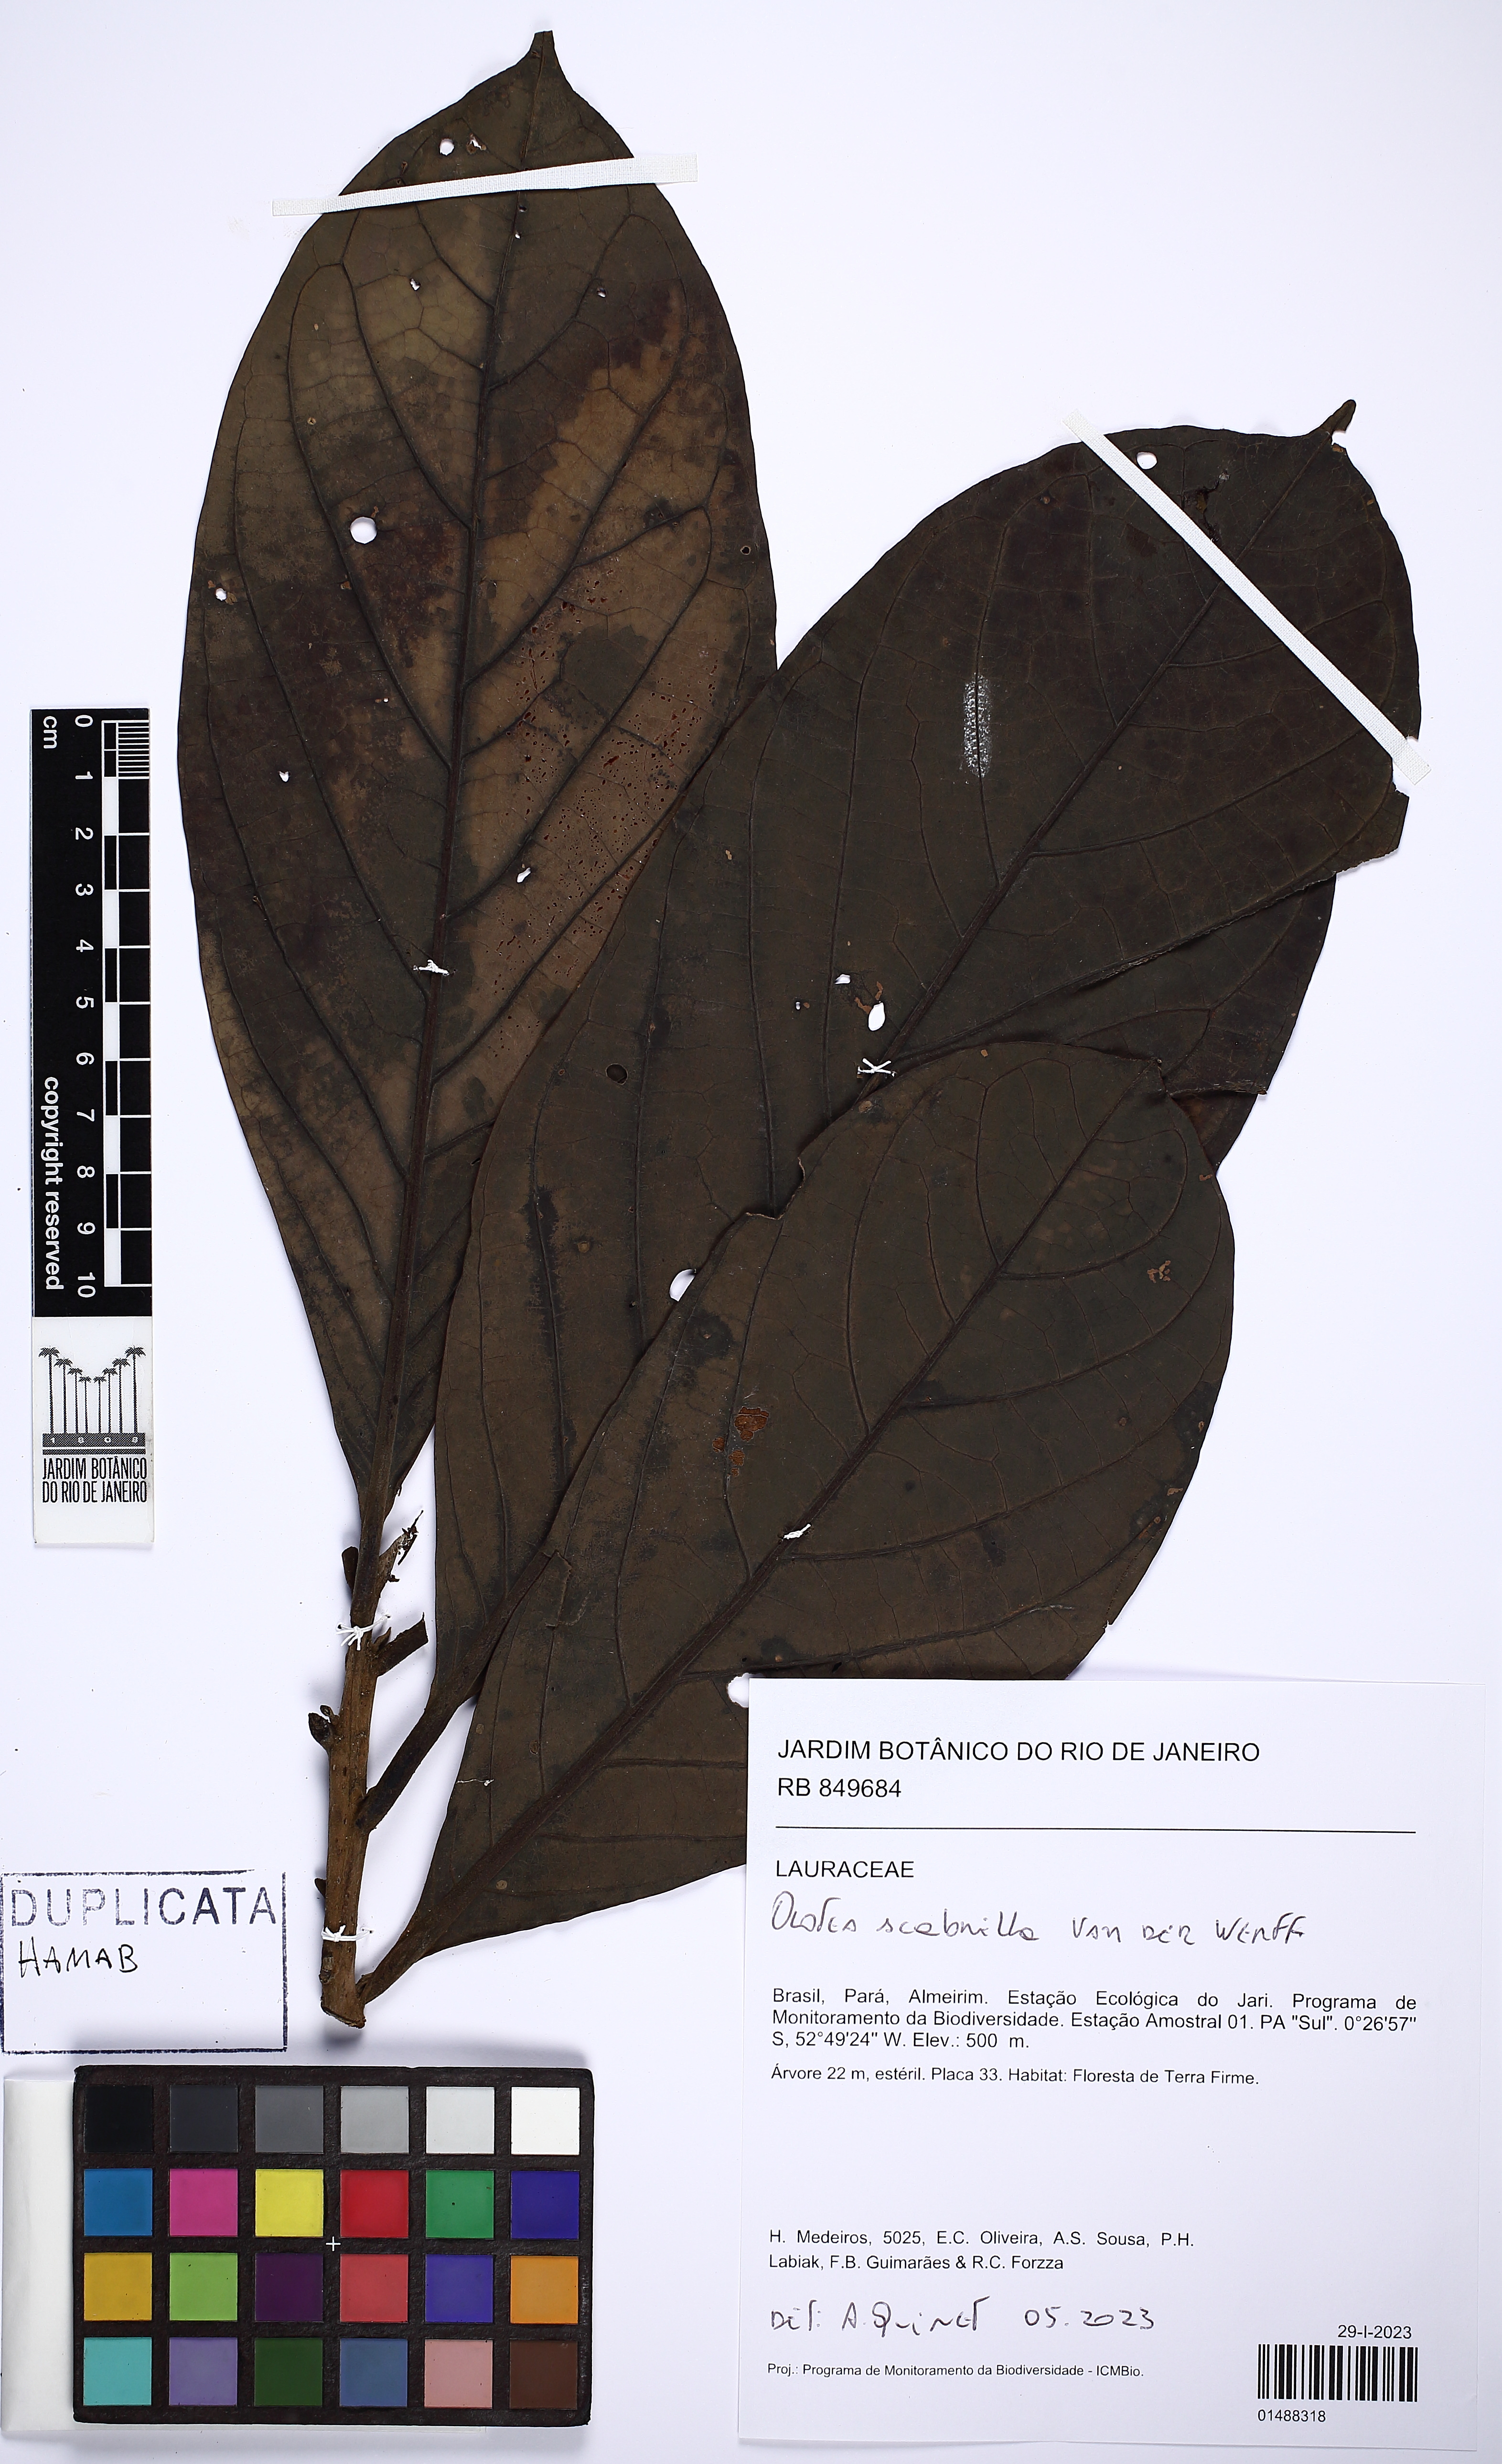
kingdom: Plantae
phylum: Tracheophyta
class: Magnoliopsida
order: Laurales
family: Lauraceae
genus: Ocotea
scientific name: Ocotea scabrella
